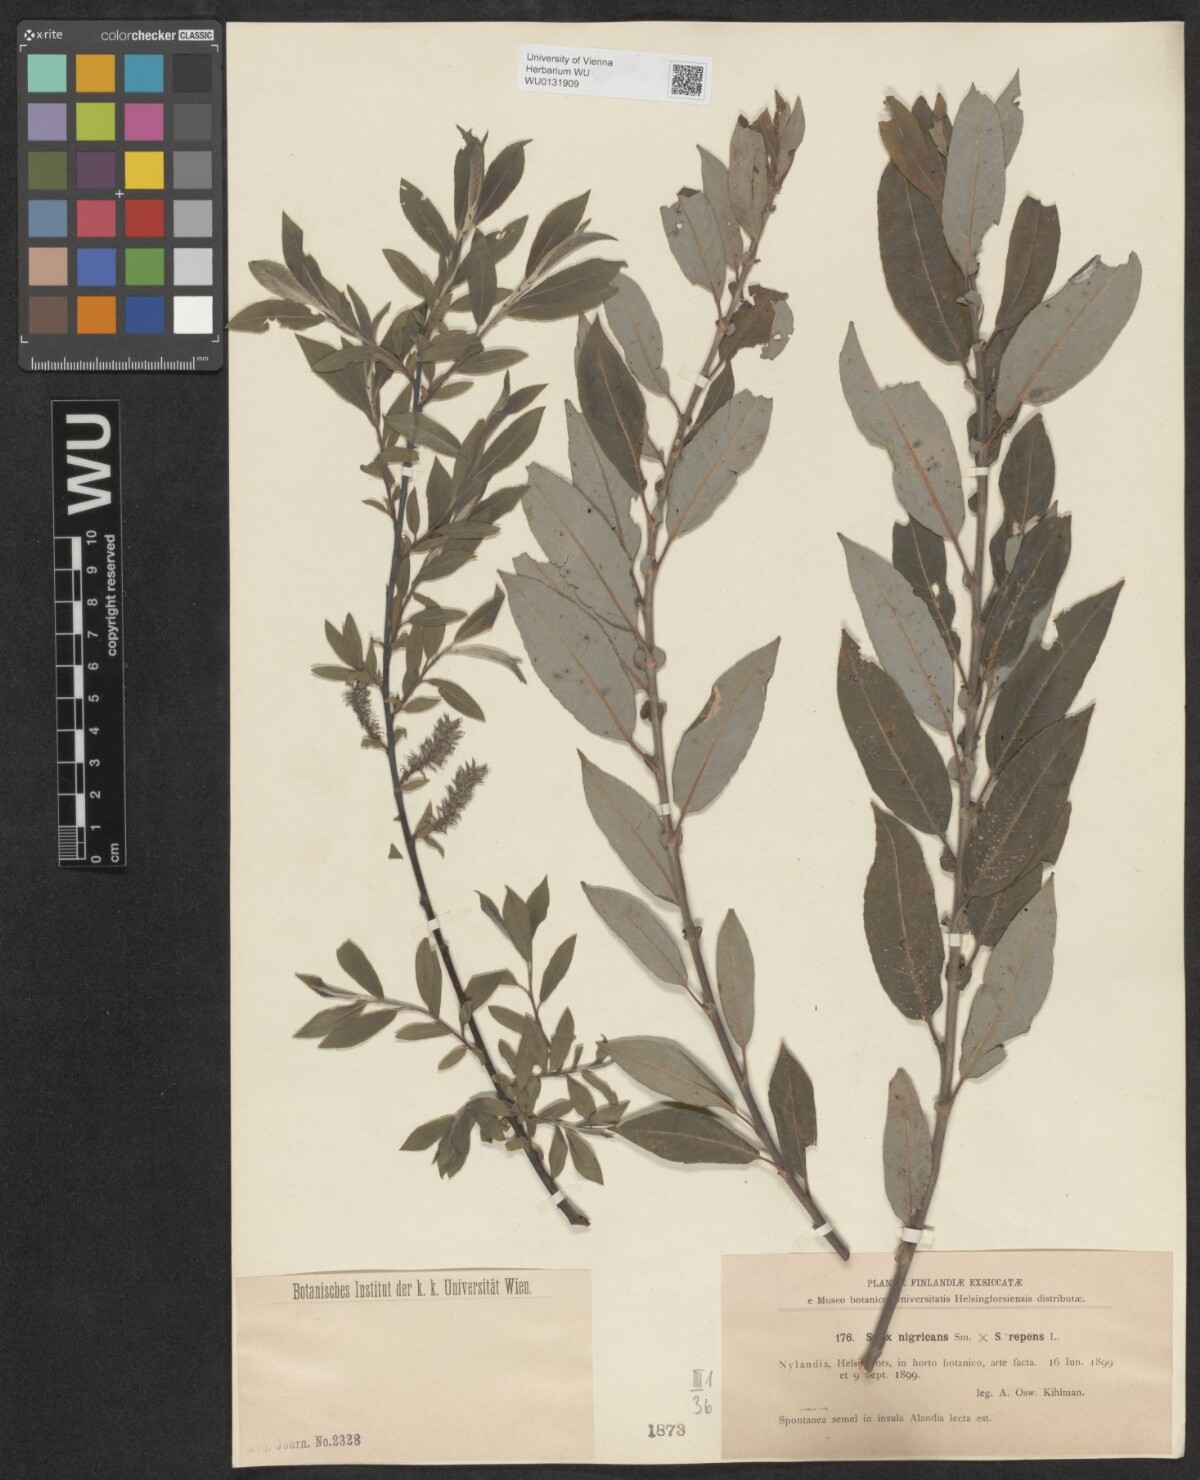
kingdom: Plantae
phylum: Tracheophyta
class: Magnoliopsida
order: Malpighiales
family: Salicaceae
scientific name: Salicaceae
